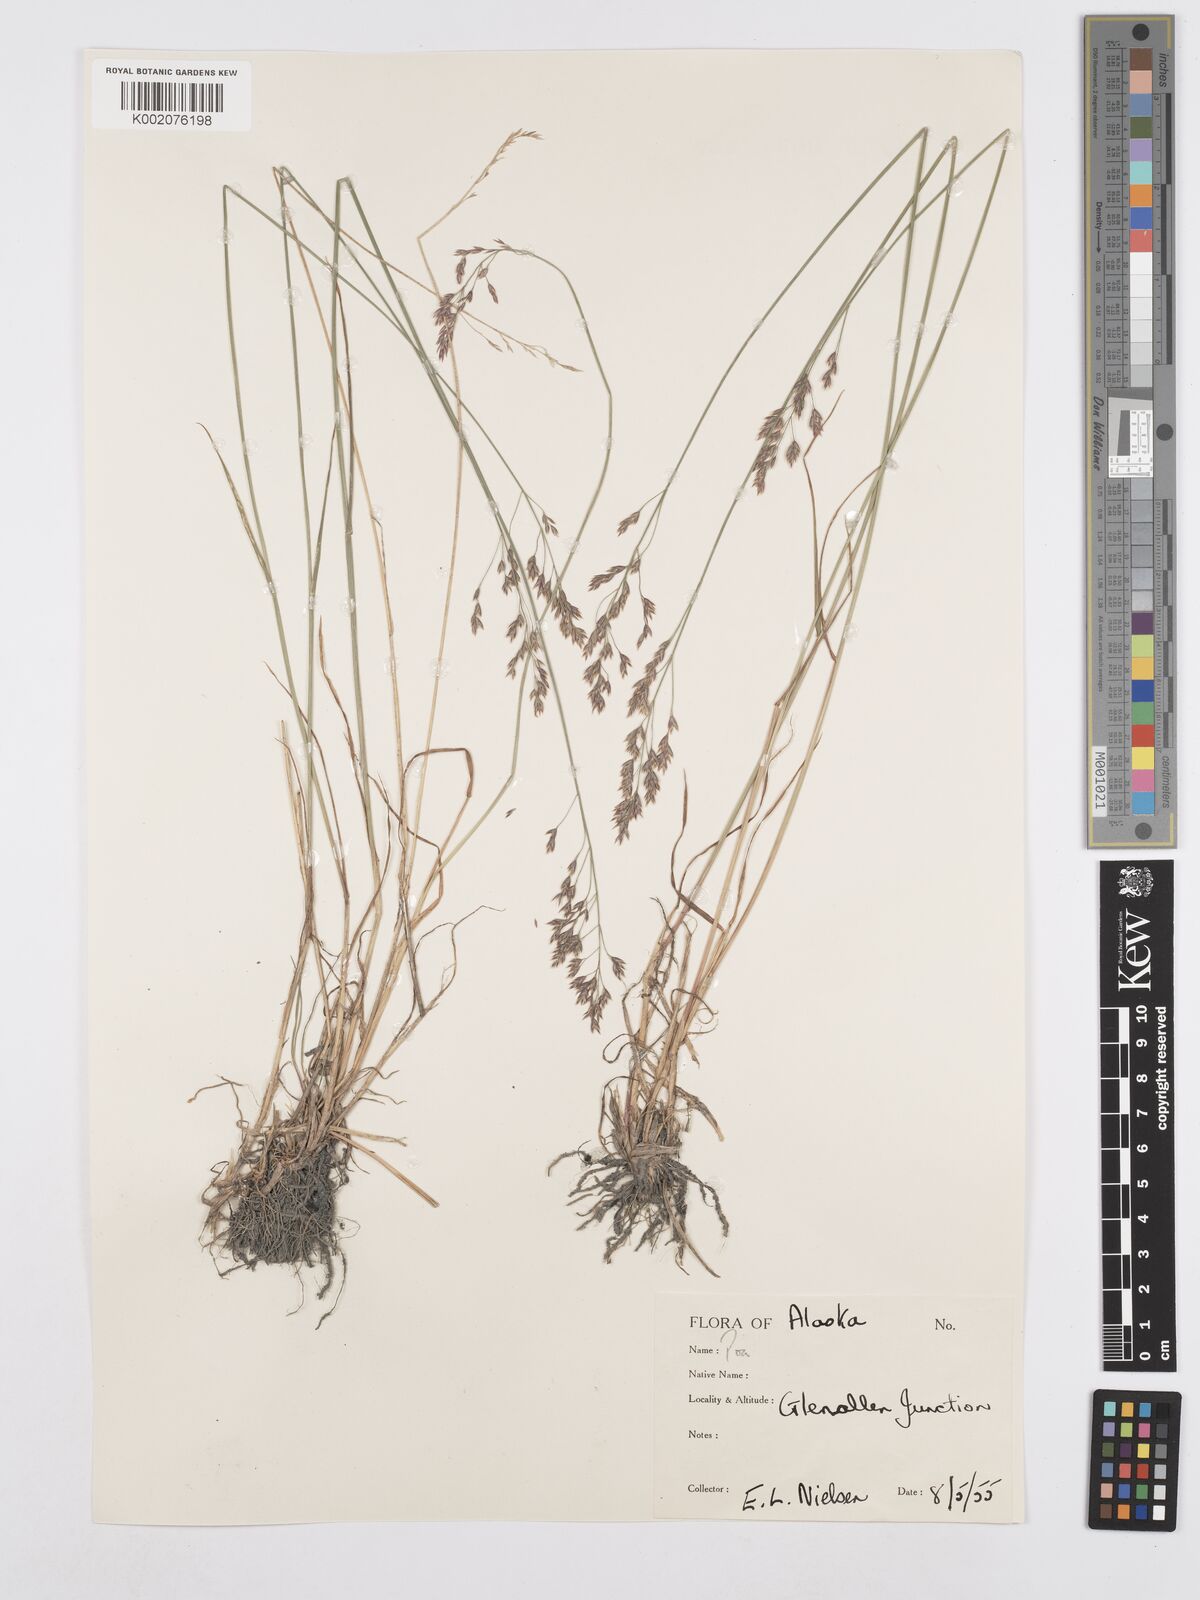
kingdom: Plantae
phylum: Tracheophyta
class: Liliopsida
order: Poales
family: Poaceae
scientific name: Poaceae
